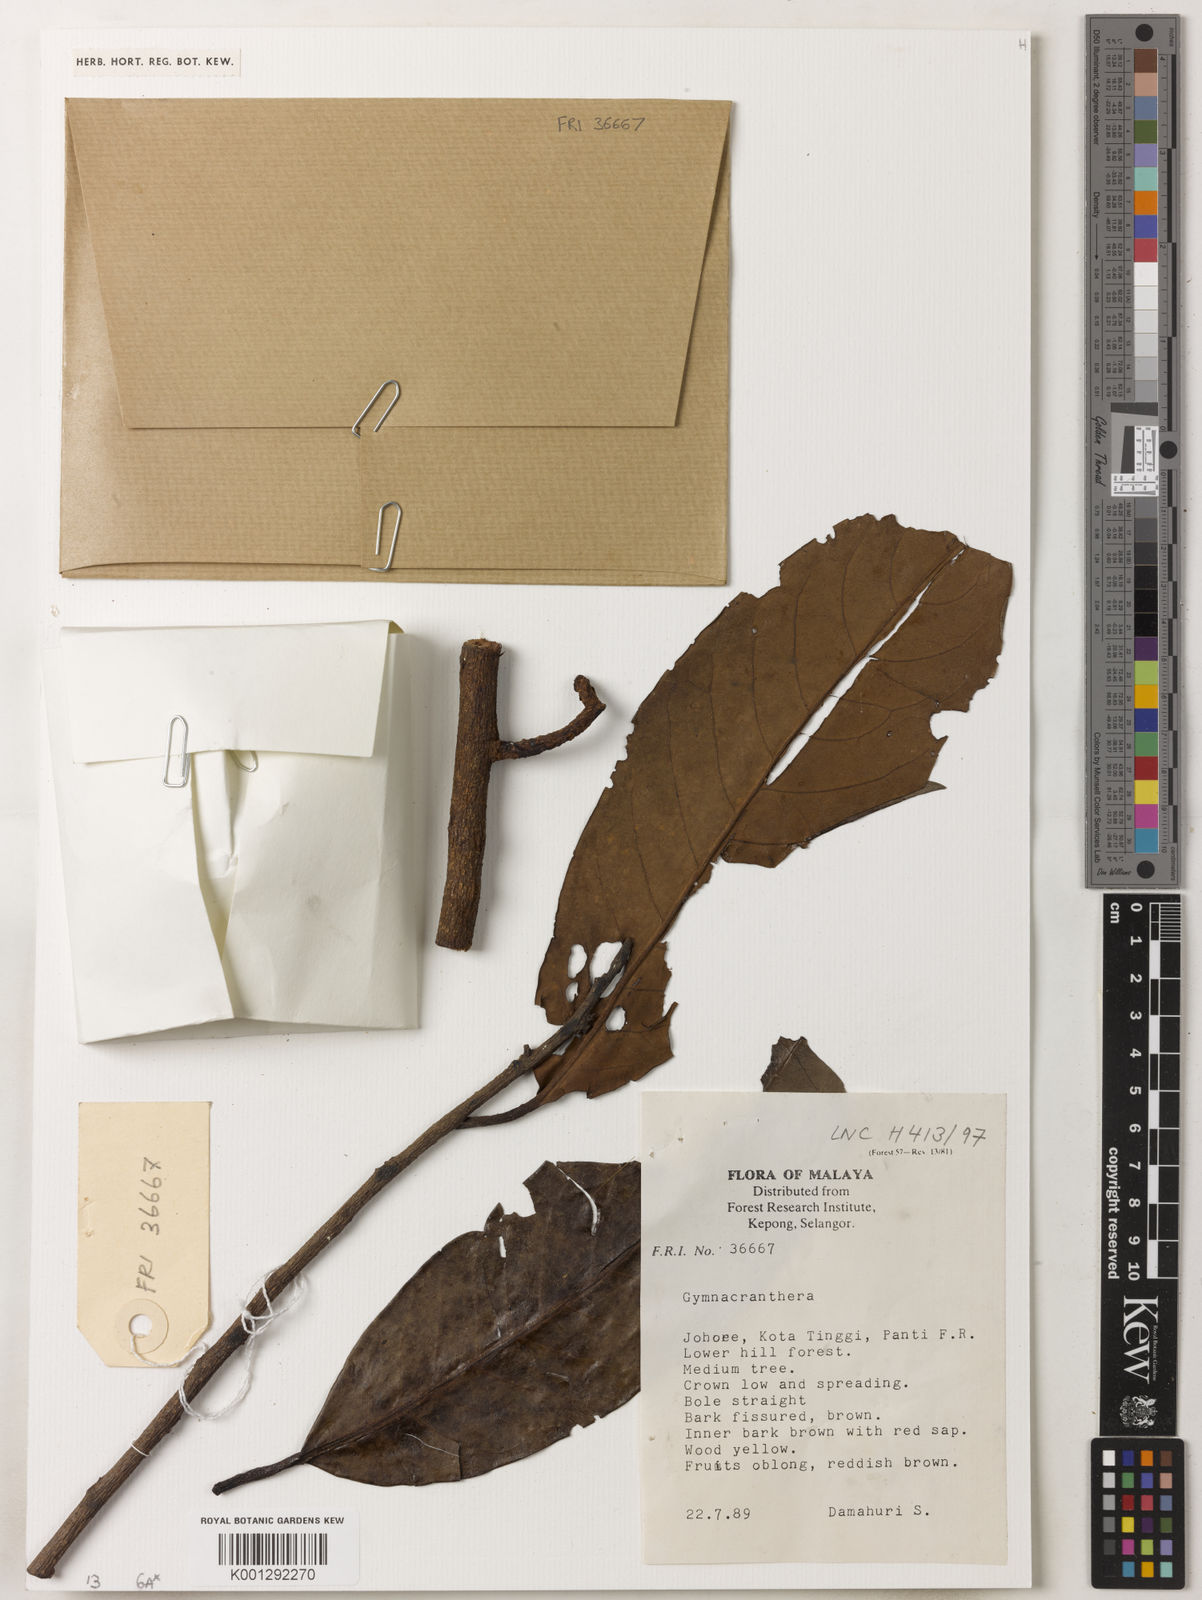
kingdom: Plantae
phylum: Tracheophyta
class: Magnoliopsida
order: Magnoliales
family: Myristicaceae
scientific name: Myristicaceae
